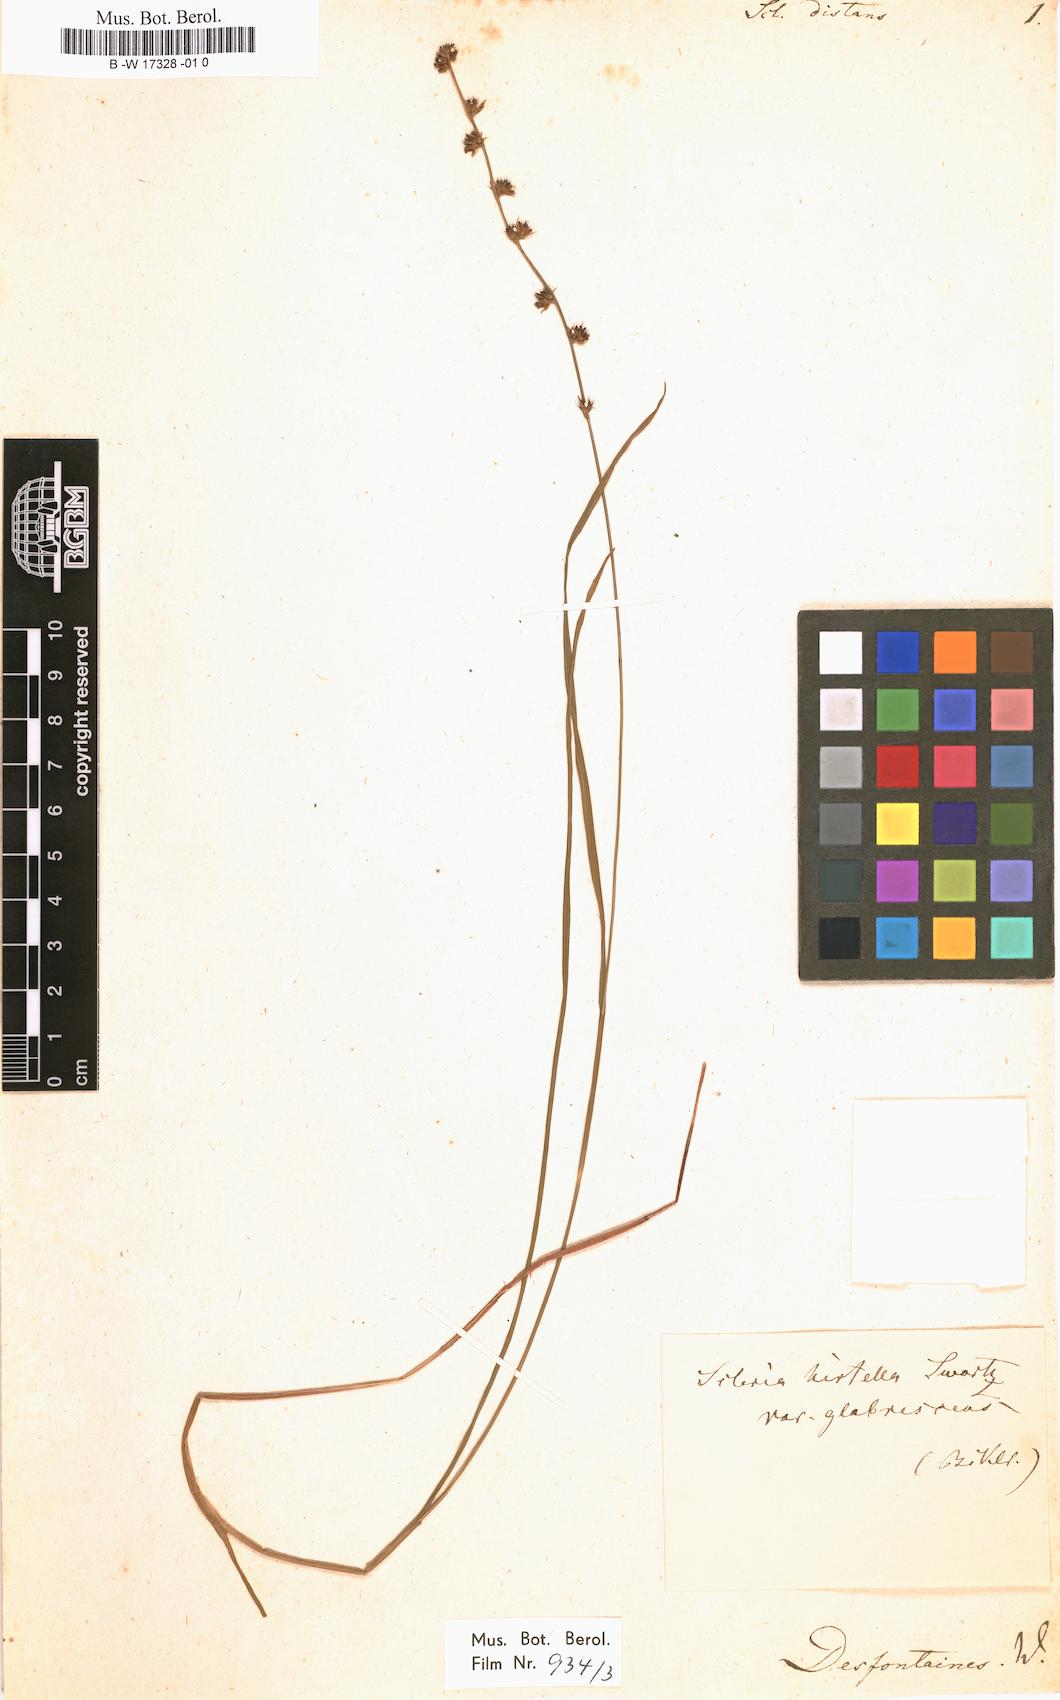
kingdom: Plantae
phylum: Tracheophyta
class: Liliopsida
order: Poales
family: Cyperaceae
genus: Scleria
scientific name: Scleria distans
